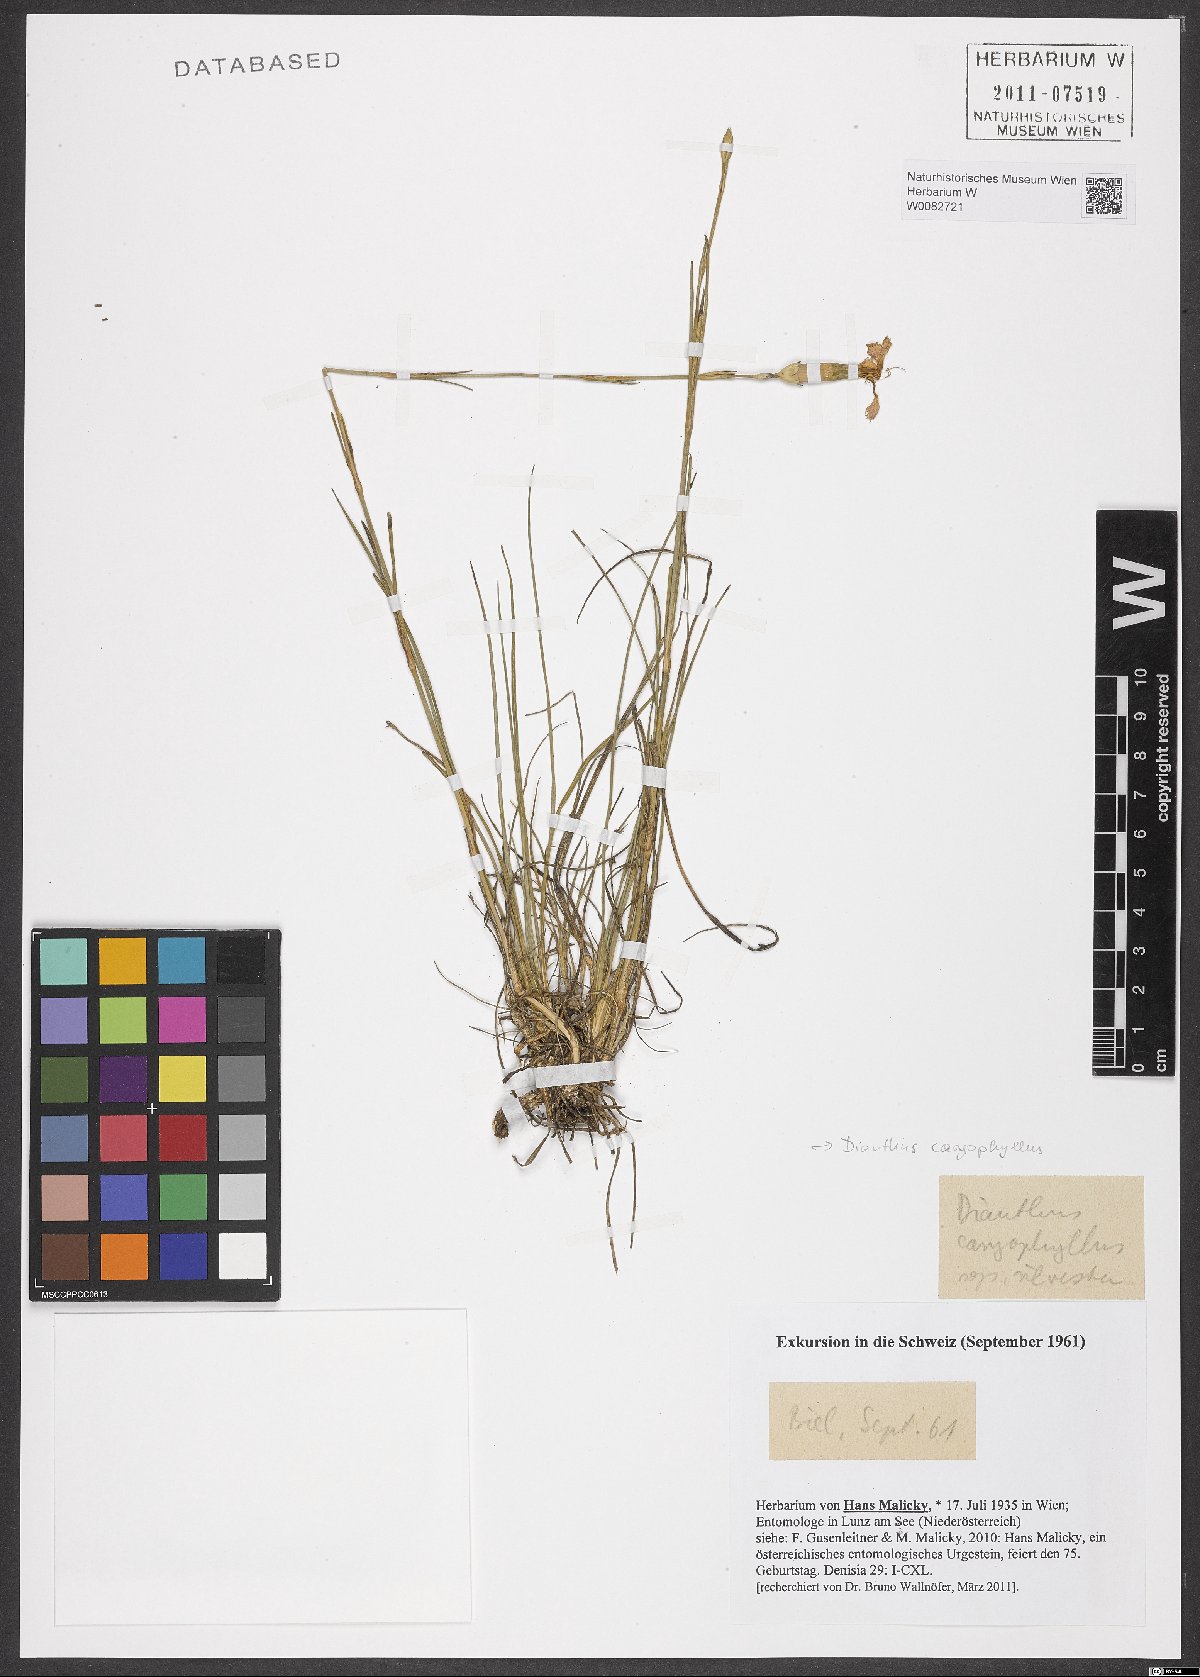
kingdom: Plantae
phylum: Tracheophyta
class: Magnoliopsida
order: Caryophyllales
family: Caryophyllaceae
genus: Dianthus
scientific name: Dianthus caryophyllus
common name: Clove pink
